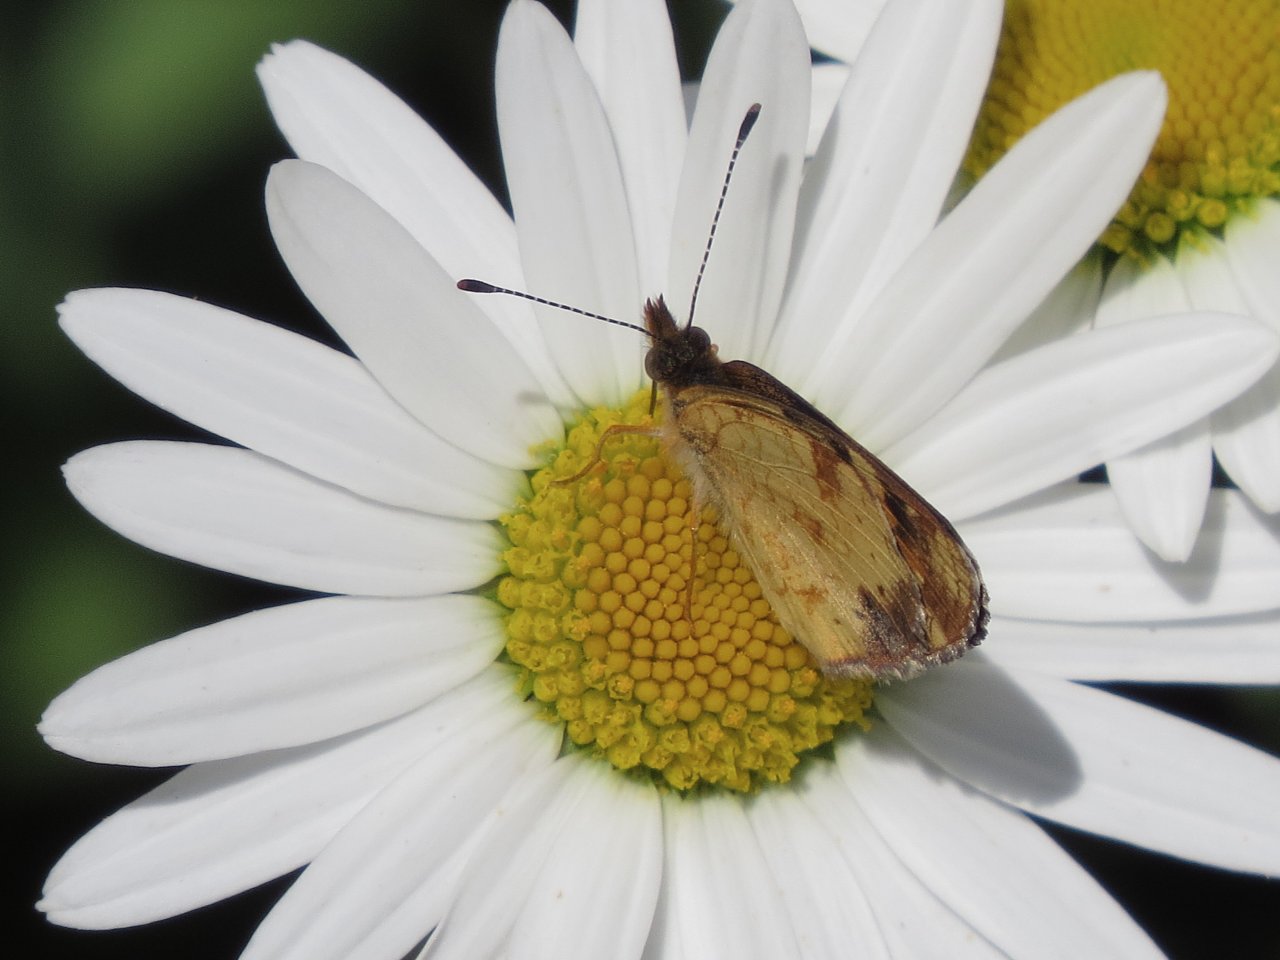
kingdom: Animalia
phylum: Arthropoda
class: Insecta
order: Lepidoptera
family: Nymphalidae
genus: Phyciodes
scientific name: Phyciodes tharos
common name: Northern Crescent
